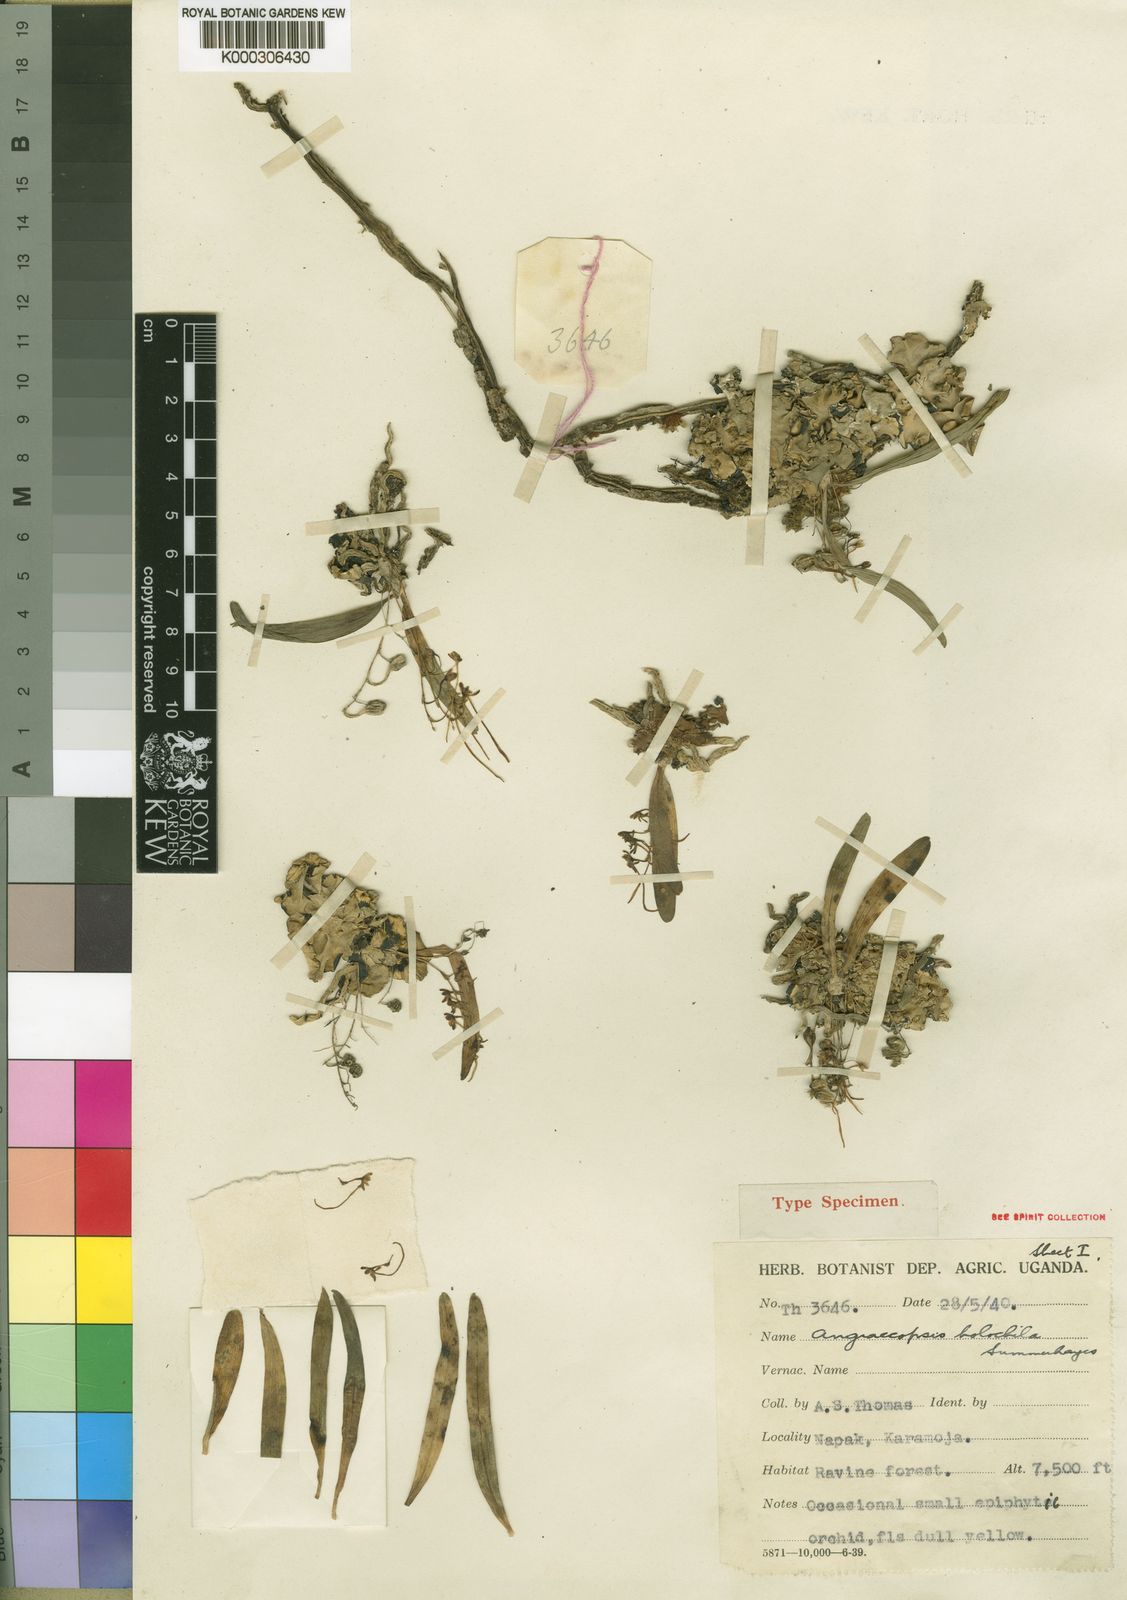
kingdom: Plantae
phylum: Tracheophyta
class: Liliopsida
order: Asparagales
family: Orchidaceae
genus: Angraecopsis
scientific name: Angraecopsis holochila
